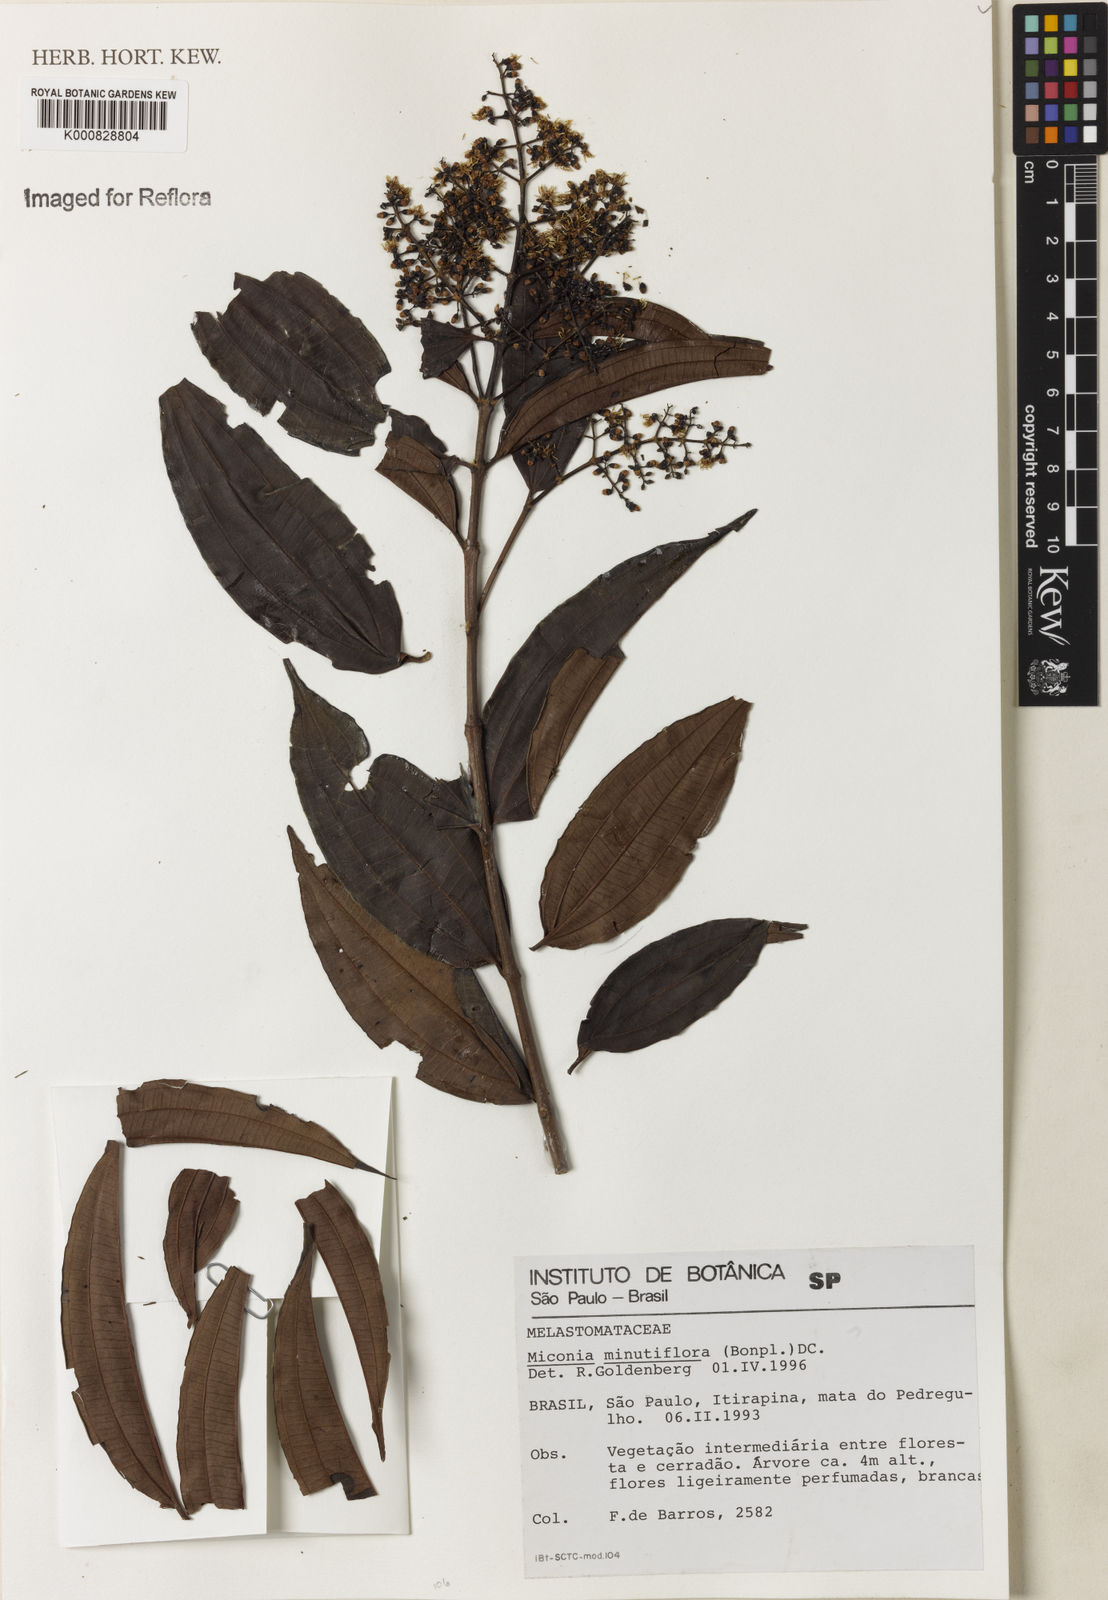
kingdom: Plantae
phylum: Tracheophyta
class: Magnoliopsida
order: Myrtales
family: Melastomataceae
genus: Miconia
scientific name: Miconia minutiflora
